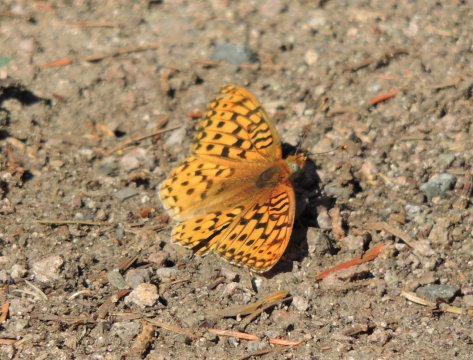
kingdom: Animalia
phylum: Arthropoda
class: Insecta
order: Lepidoptera
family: Nymphalidae
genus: Speyeria
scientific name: Speyeria coronis
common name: Coronis Fritillary
